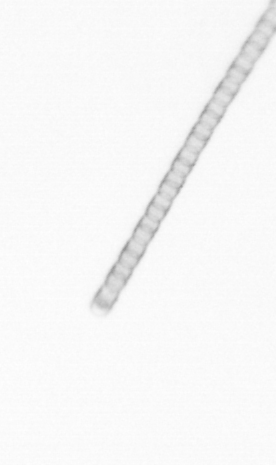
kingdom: Chromista
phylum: Ochrophyta
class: Bacillariophyceae
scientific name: Bacillariophyceae
